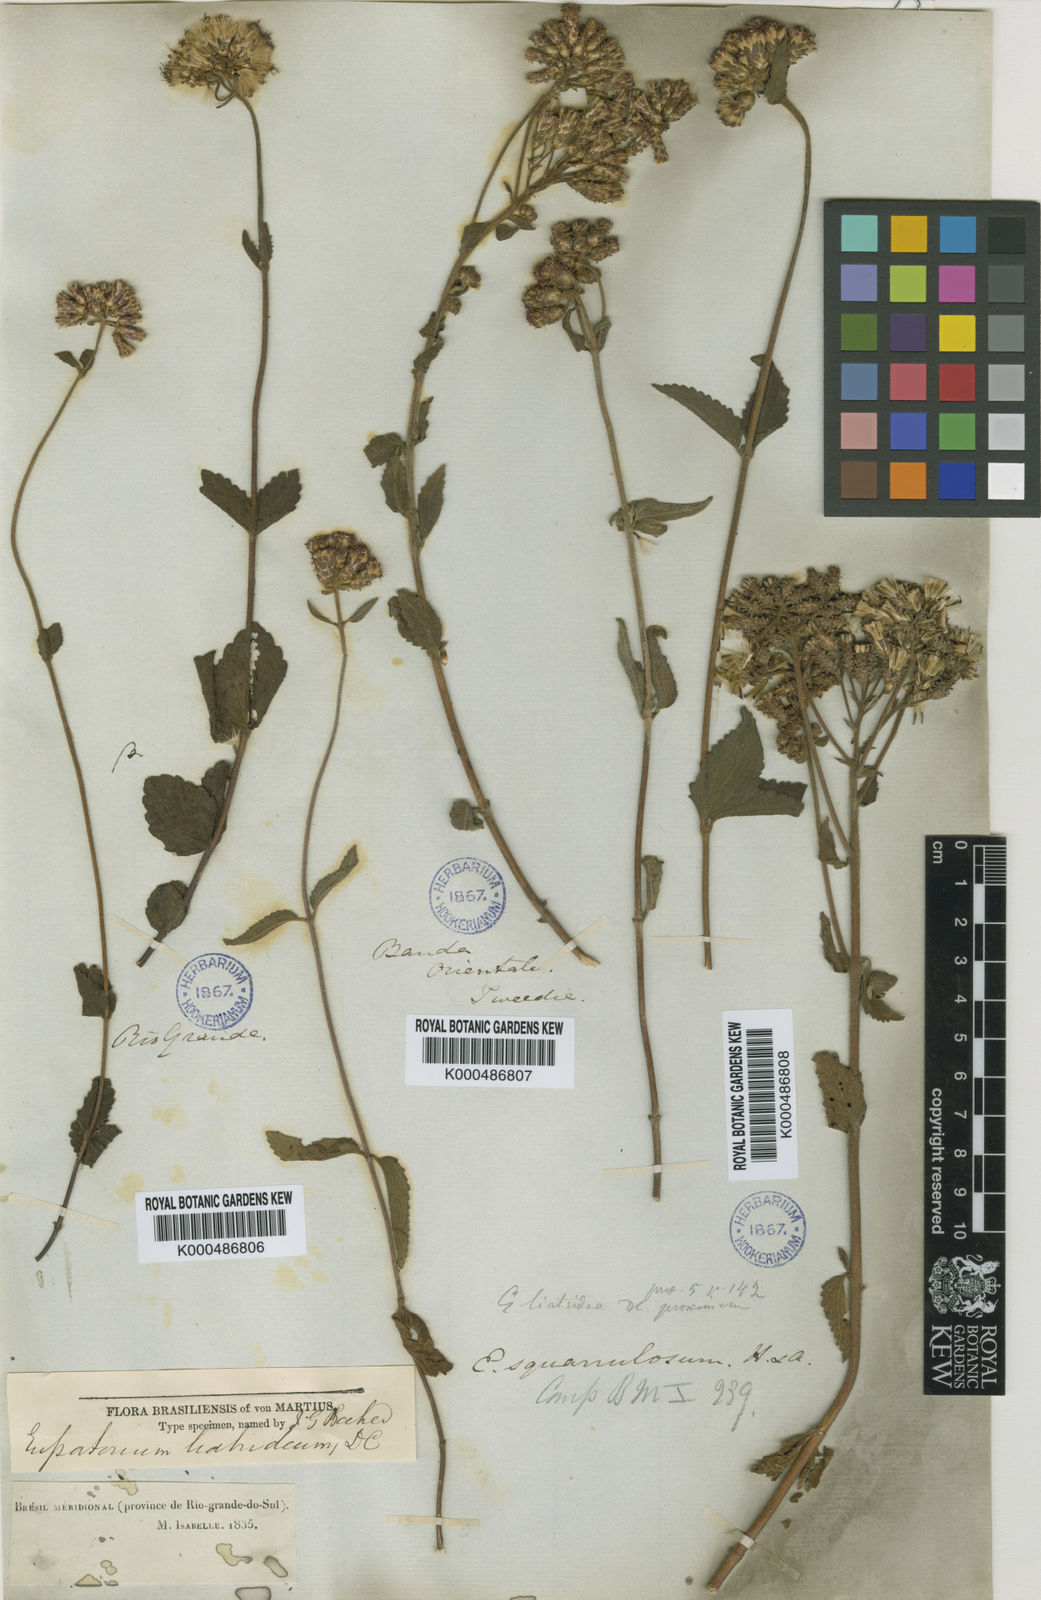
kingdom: Plantae
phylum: Tracheophyta
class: Magnoliopsida
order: Asterales
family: Asteraceae
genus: Chromolaena
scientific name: Chromolaena
